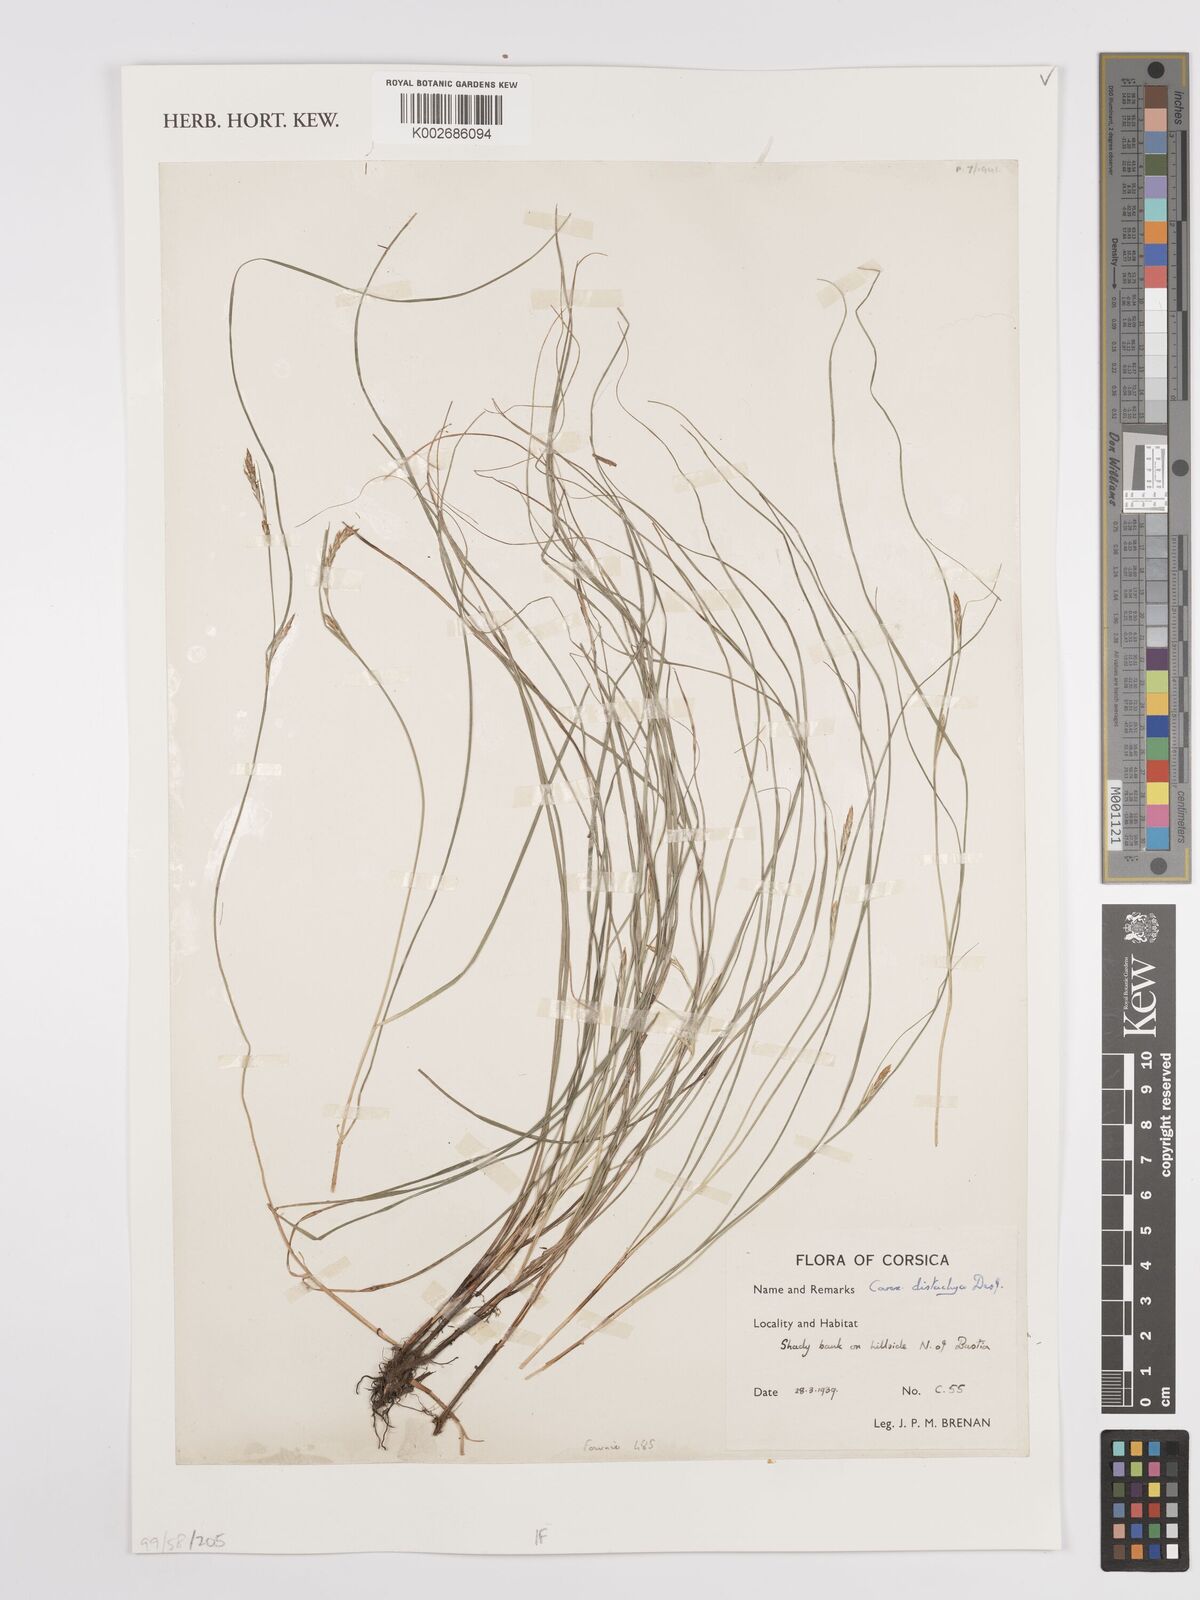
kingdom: Plantae
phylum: Tracheophyta
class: Liliopsida
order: Poales
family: Cyperaceae
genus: Carex
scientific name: Carex distachya
